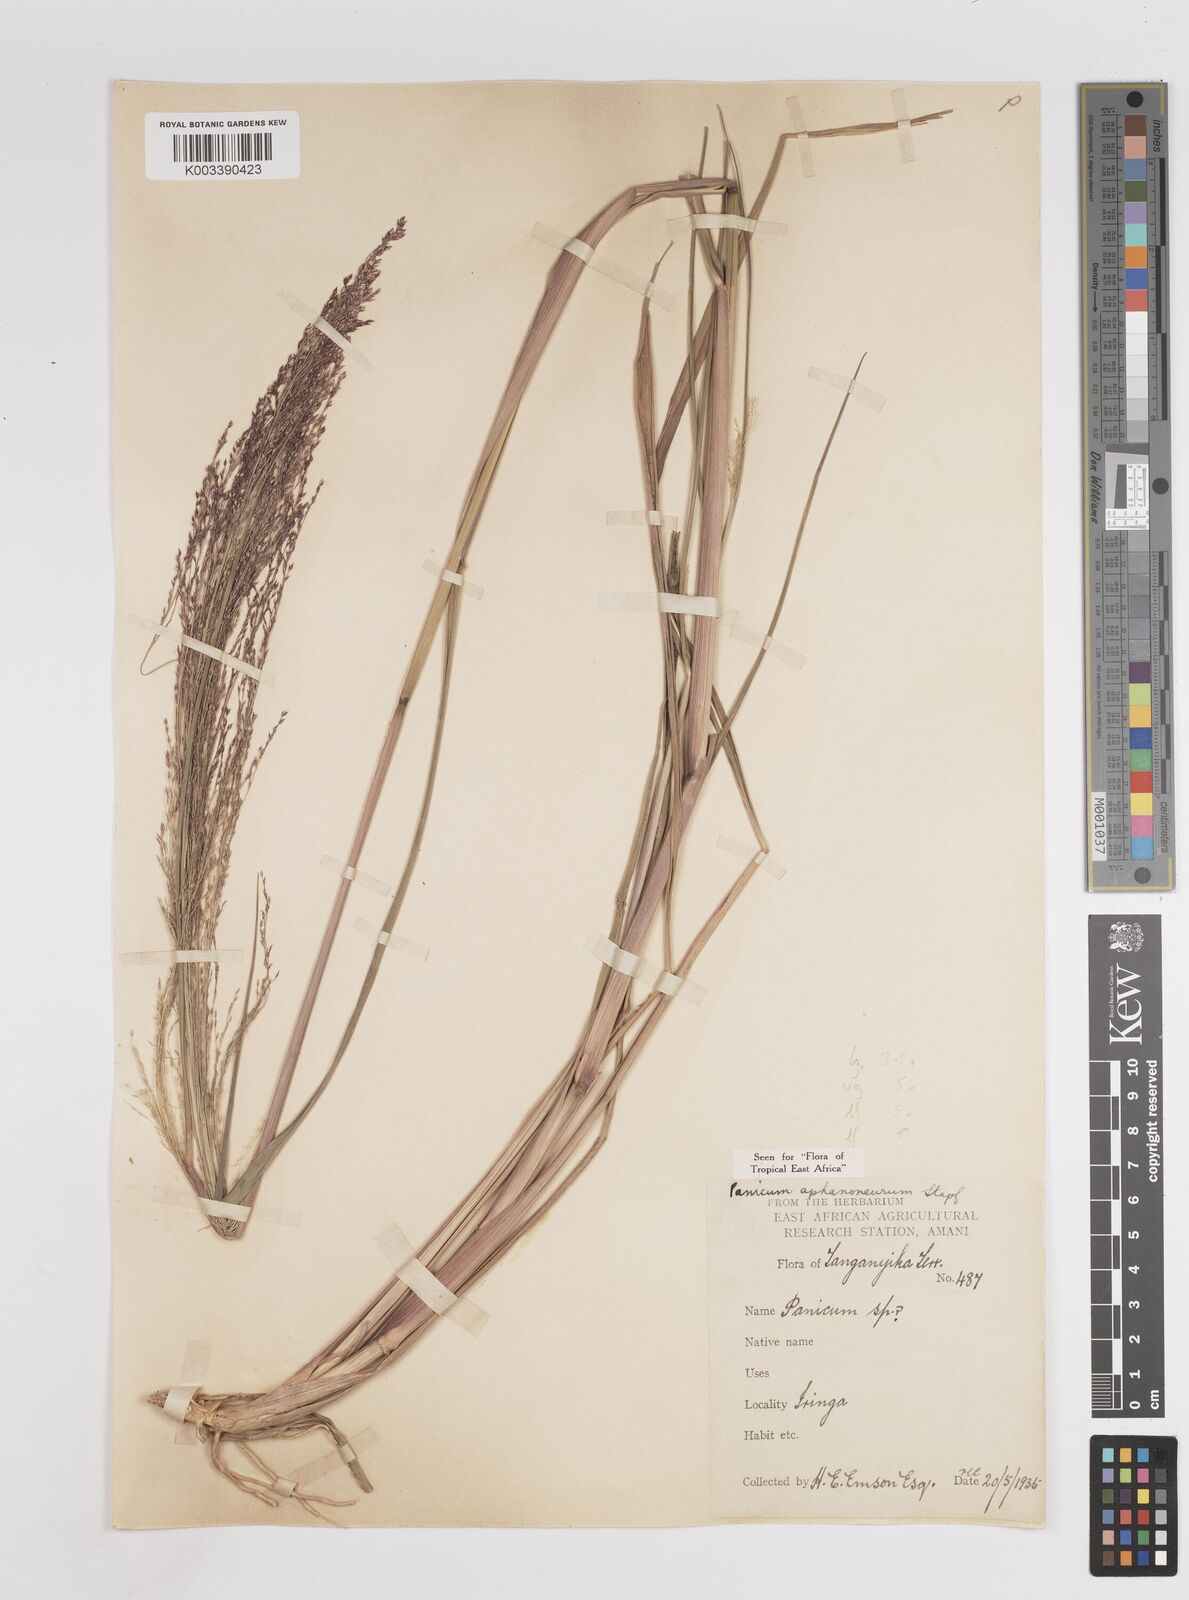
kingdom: Plantae
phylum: Tracheophyta
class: Liliopsida
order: Poales
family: Poaceae
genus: Panicum
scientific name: Panicum fluviicola
